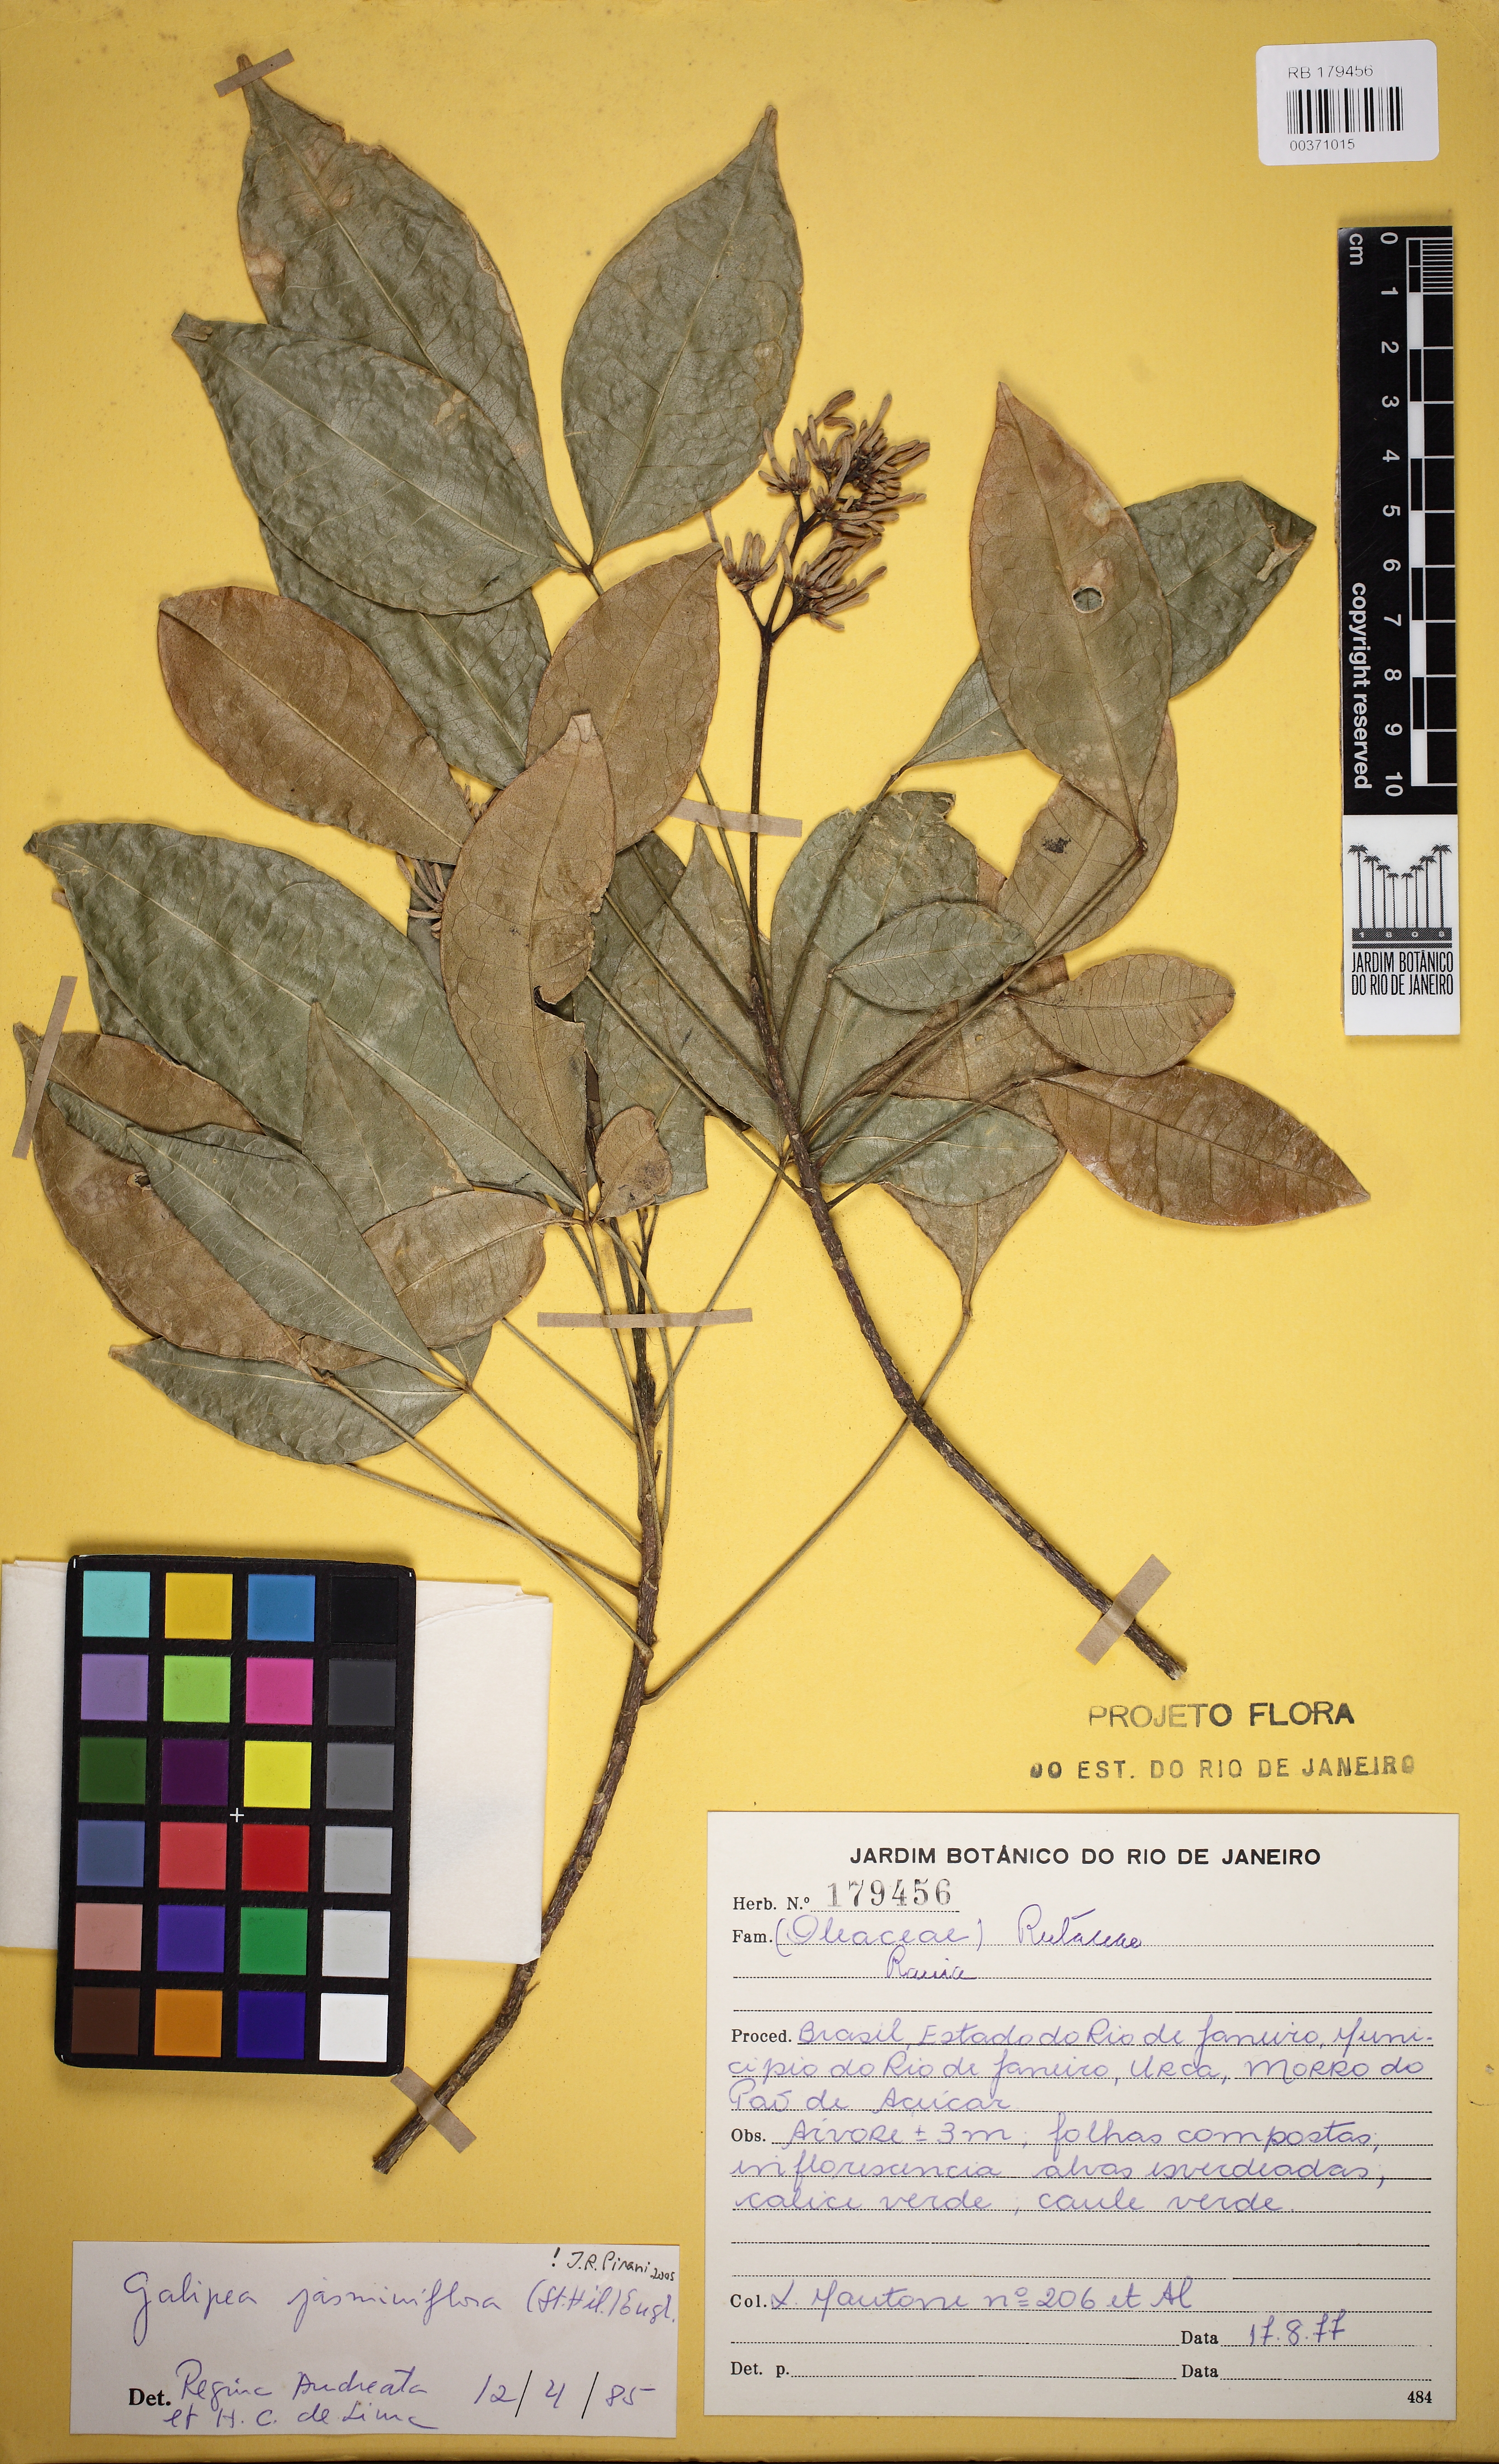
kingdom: Plantae
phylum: Tracheophyta
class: Magnoliopsida
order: Sapindales
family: Rutaceae
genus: Galipea
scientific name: Galipea jasminiflora
